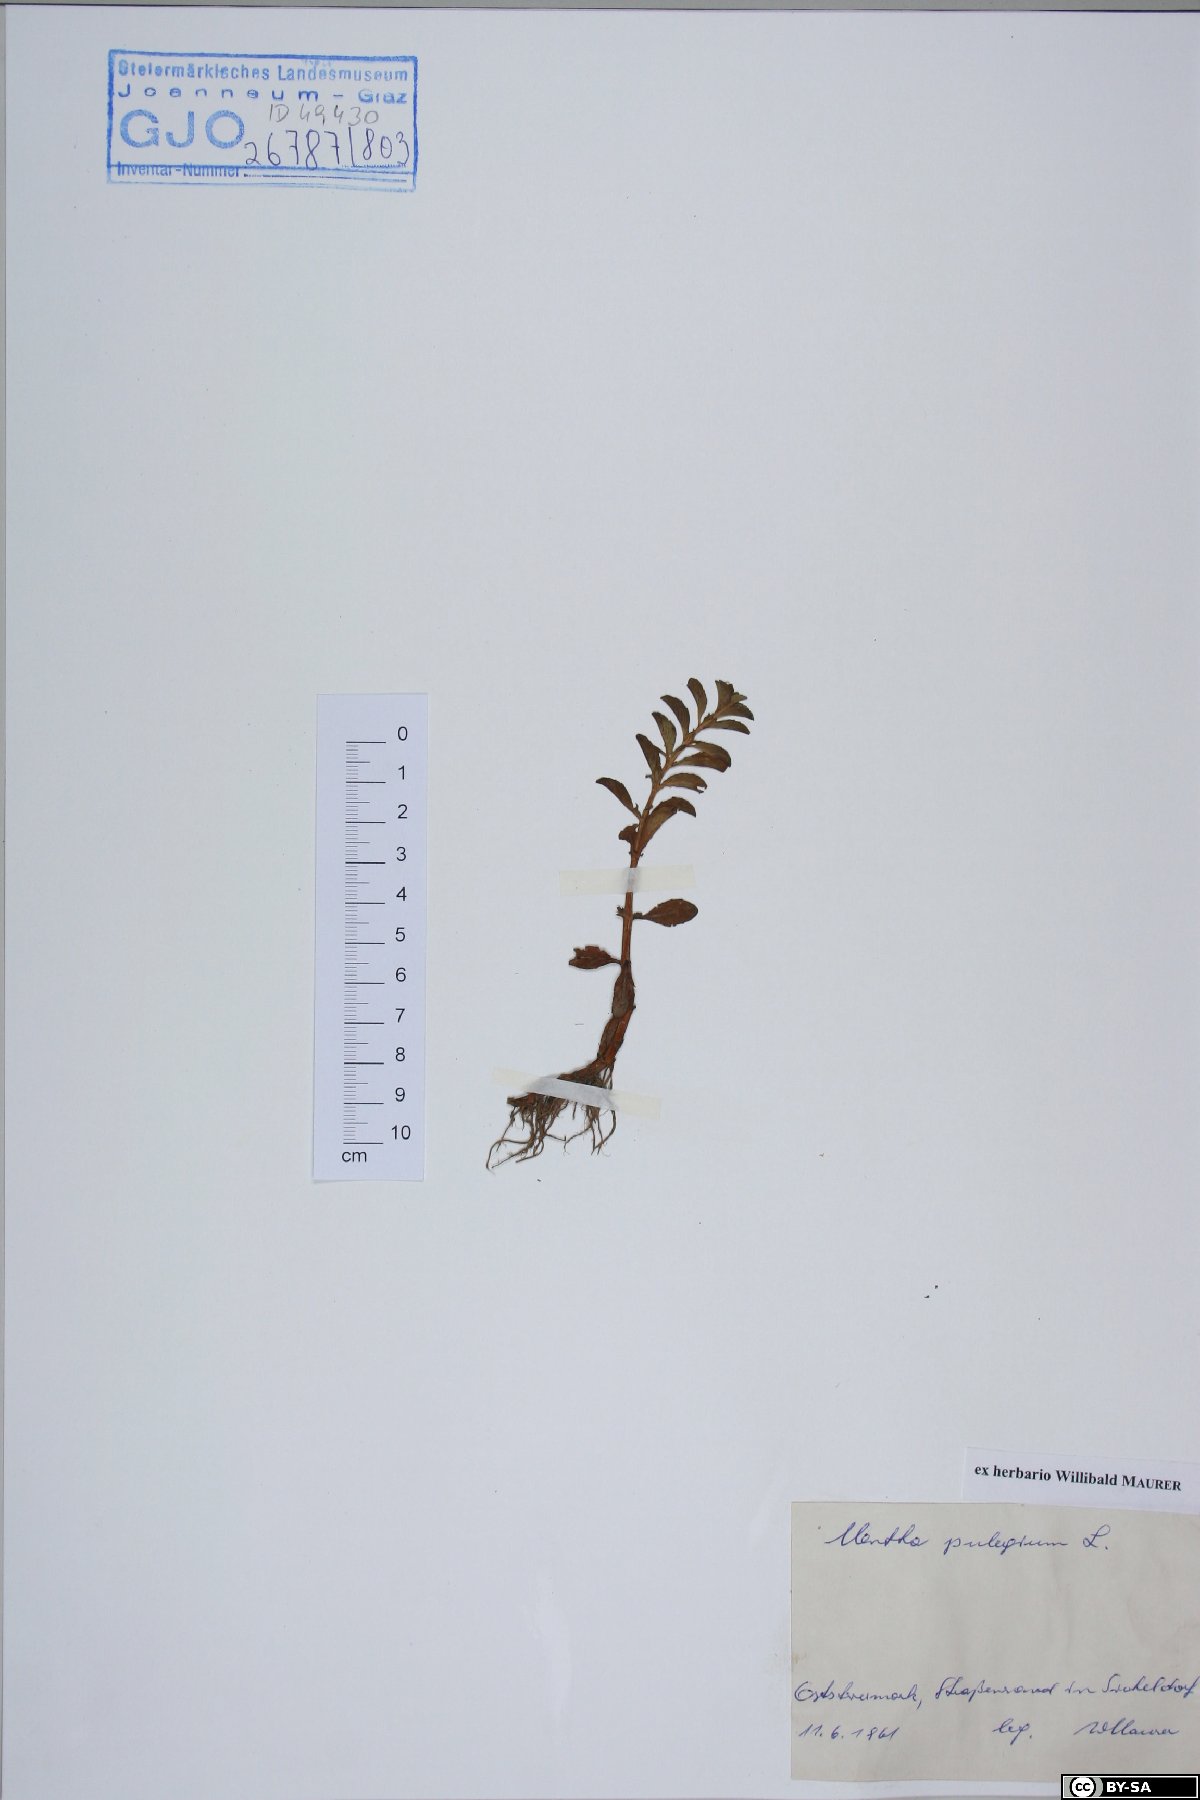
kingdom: Plantae
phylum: Tracheophyta
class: Magnoliopsida
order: Lamiales
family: Lamiaceae
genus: Mentha
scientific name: Mentha pulegium
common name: Pennyroyal
